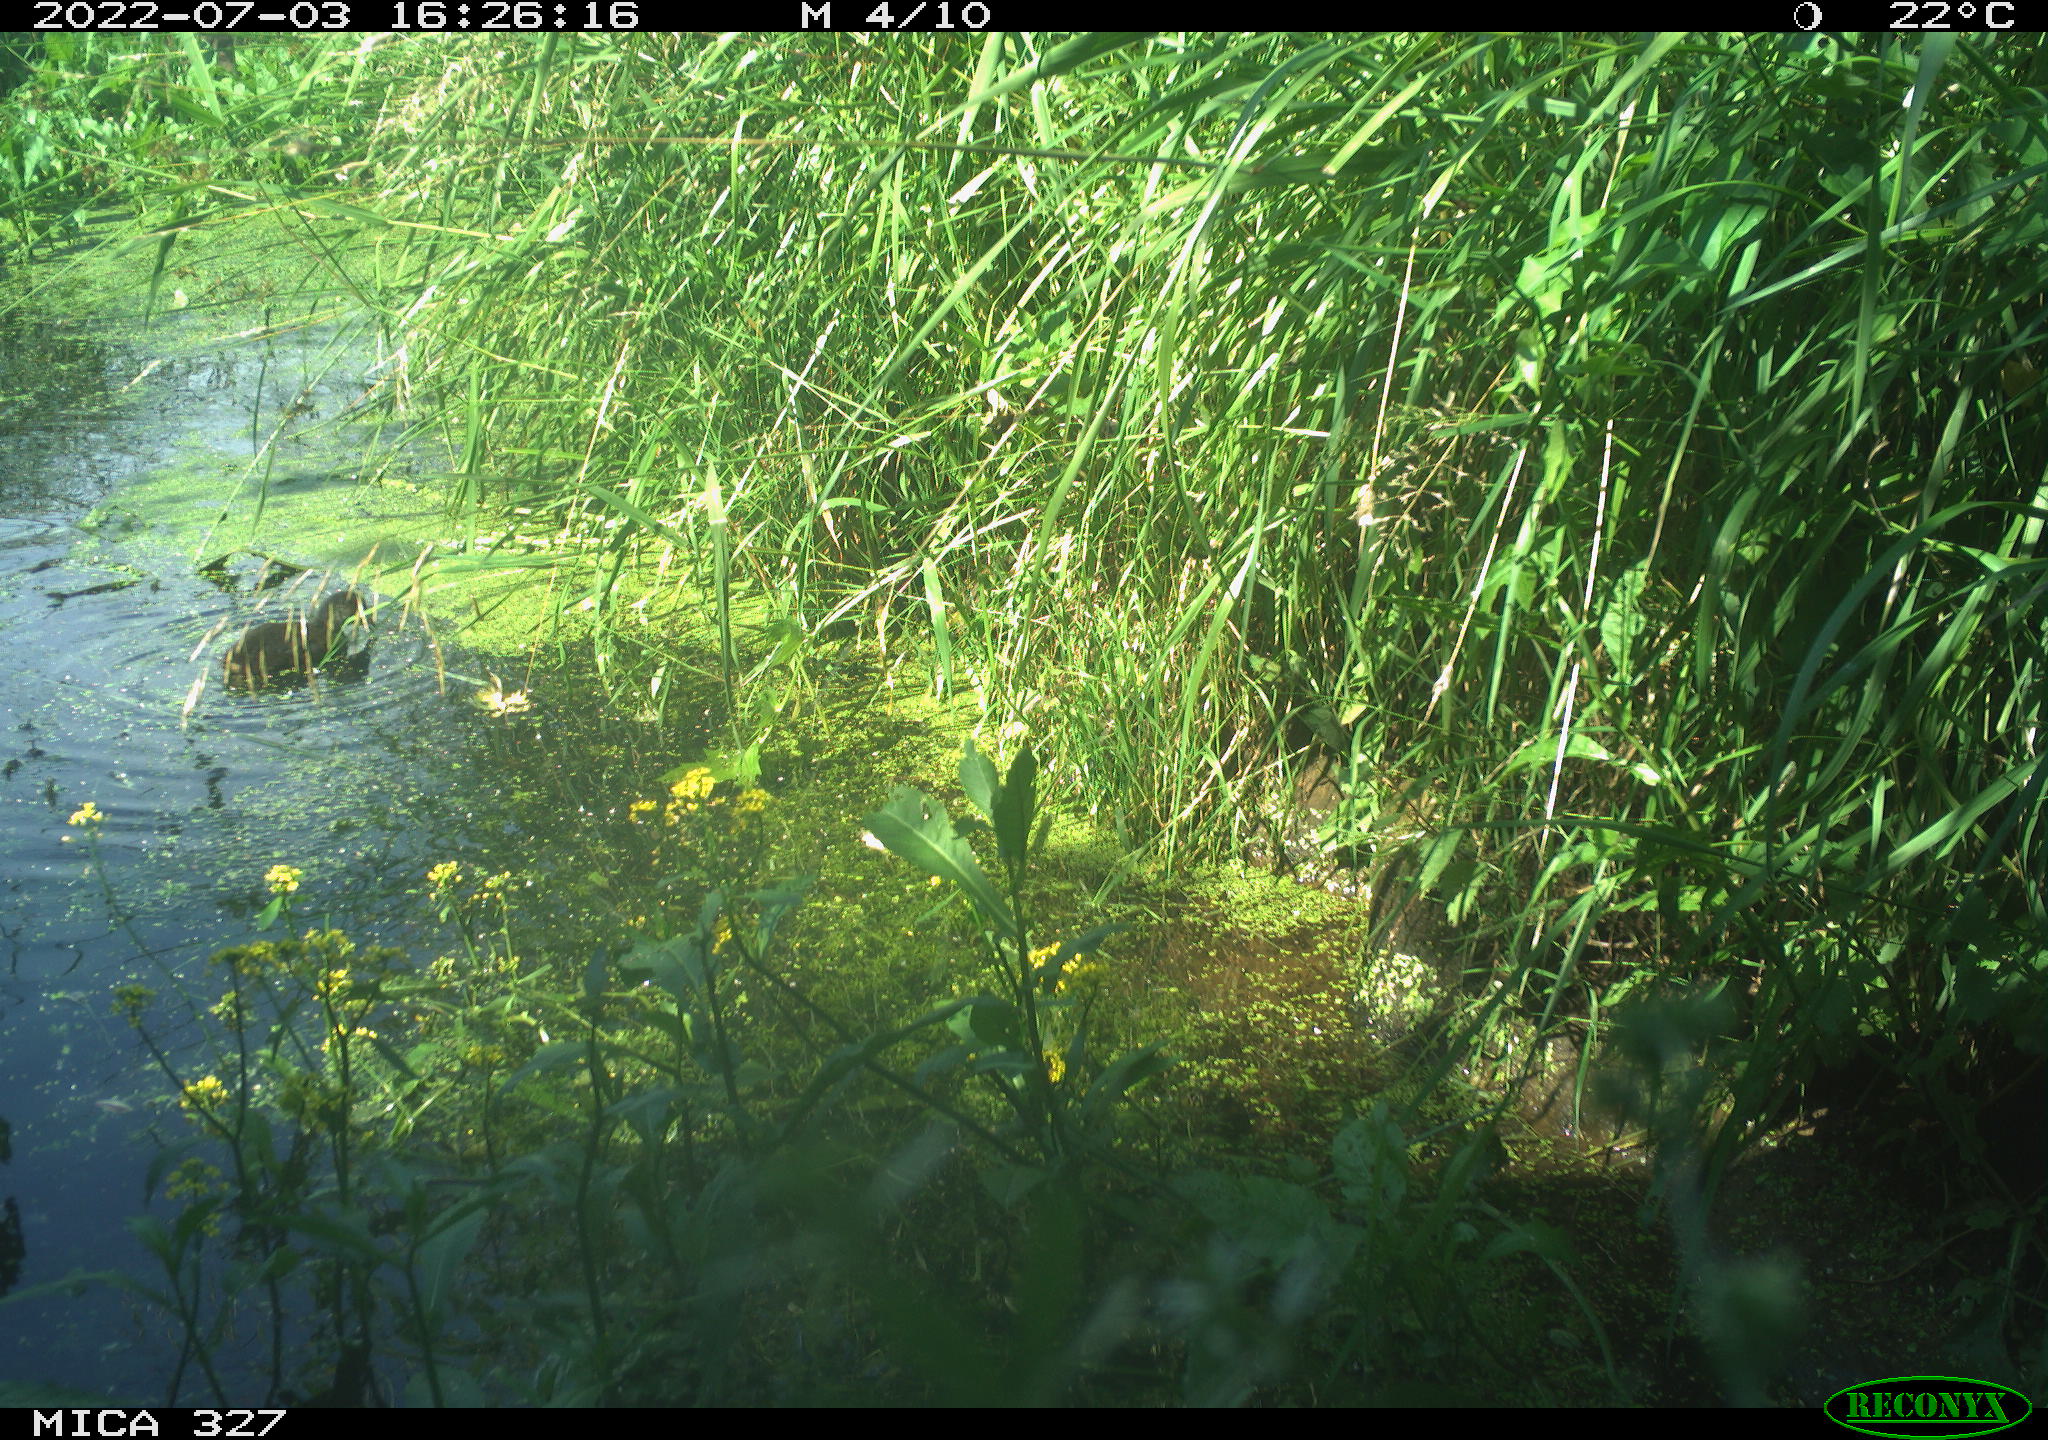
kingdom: Animalia
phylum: Chordata
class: Aves
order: Gruiformes
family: Rallidae
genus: Gallinula
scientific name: Gallinula chloropus
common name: Common moorhen
